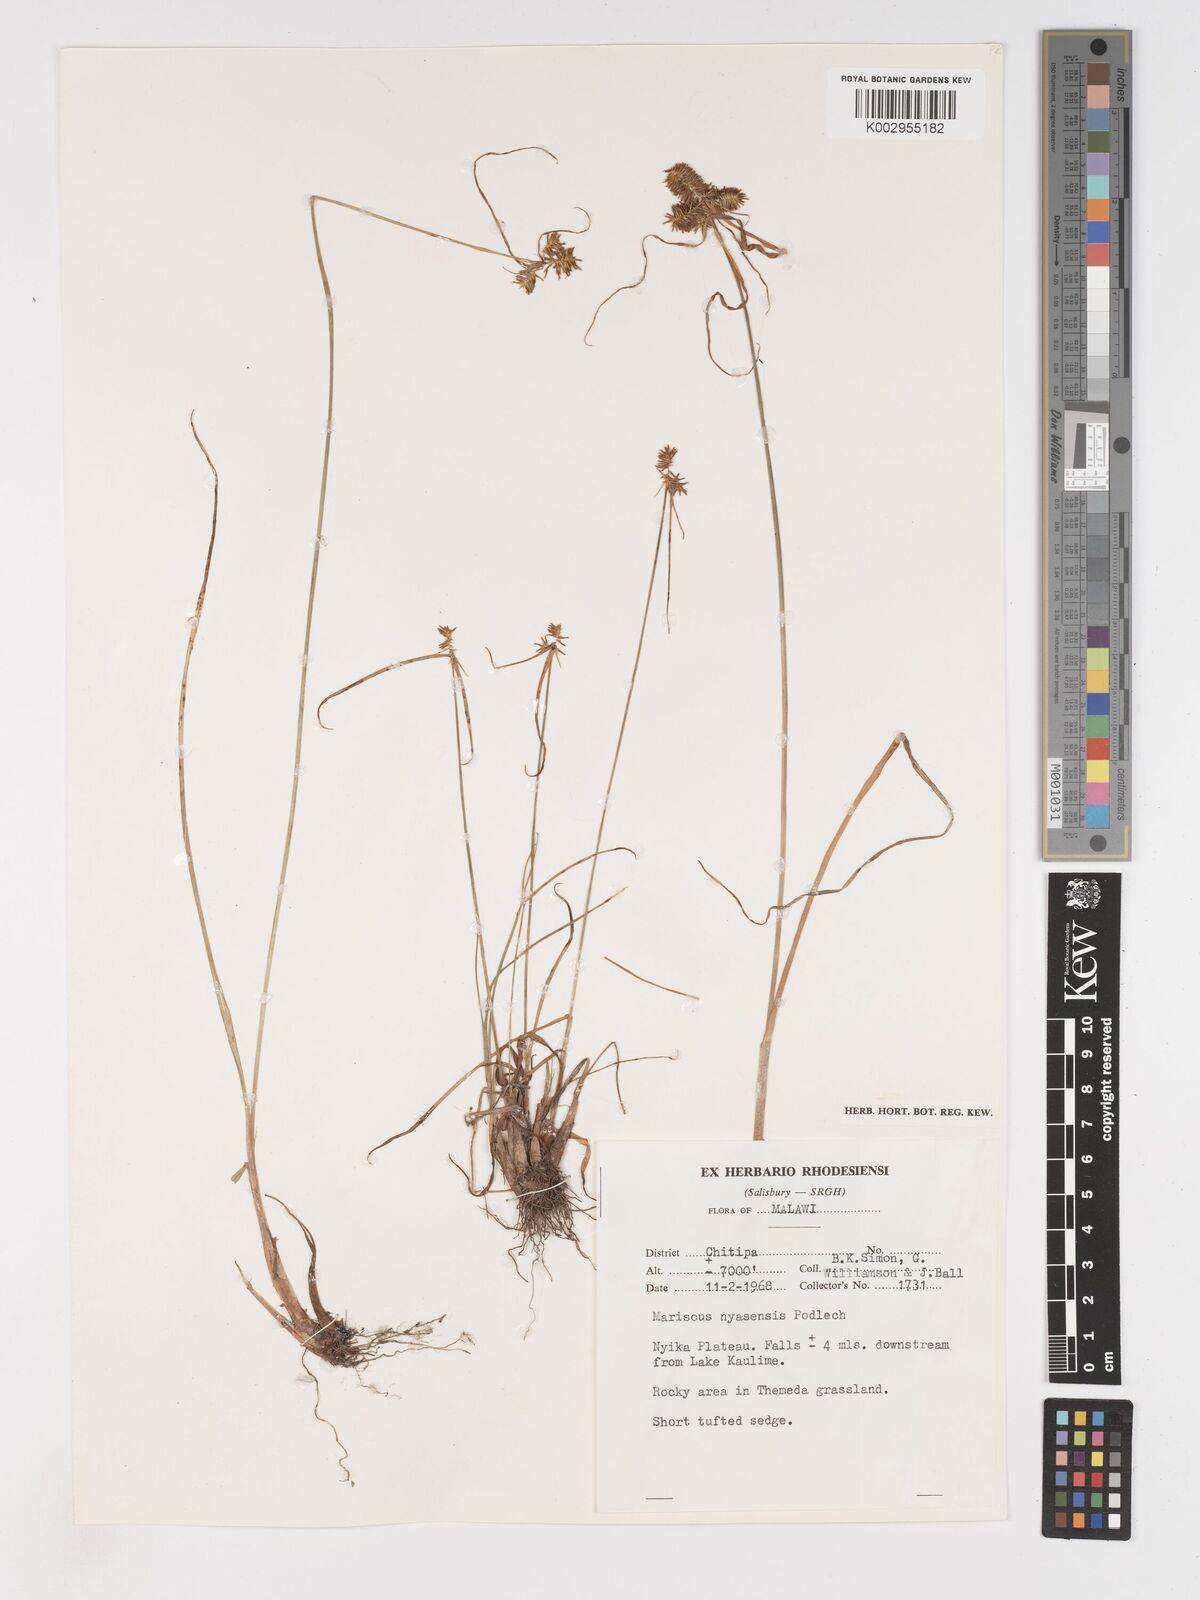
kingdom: Plantae
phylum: Tracheophyta
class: Liliopsida
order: Poales
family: Cyperaceae
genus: Cyperus
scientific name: Cyperus nyasensis
